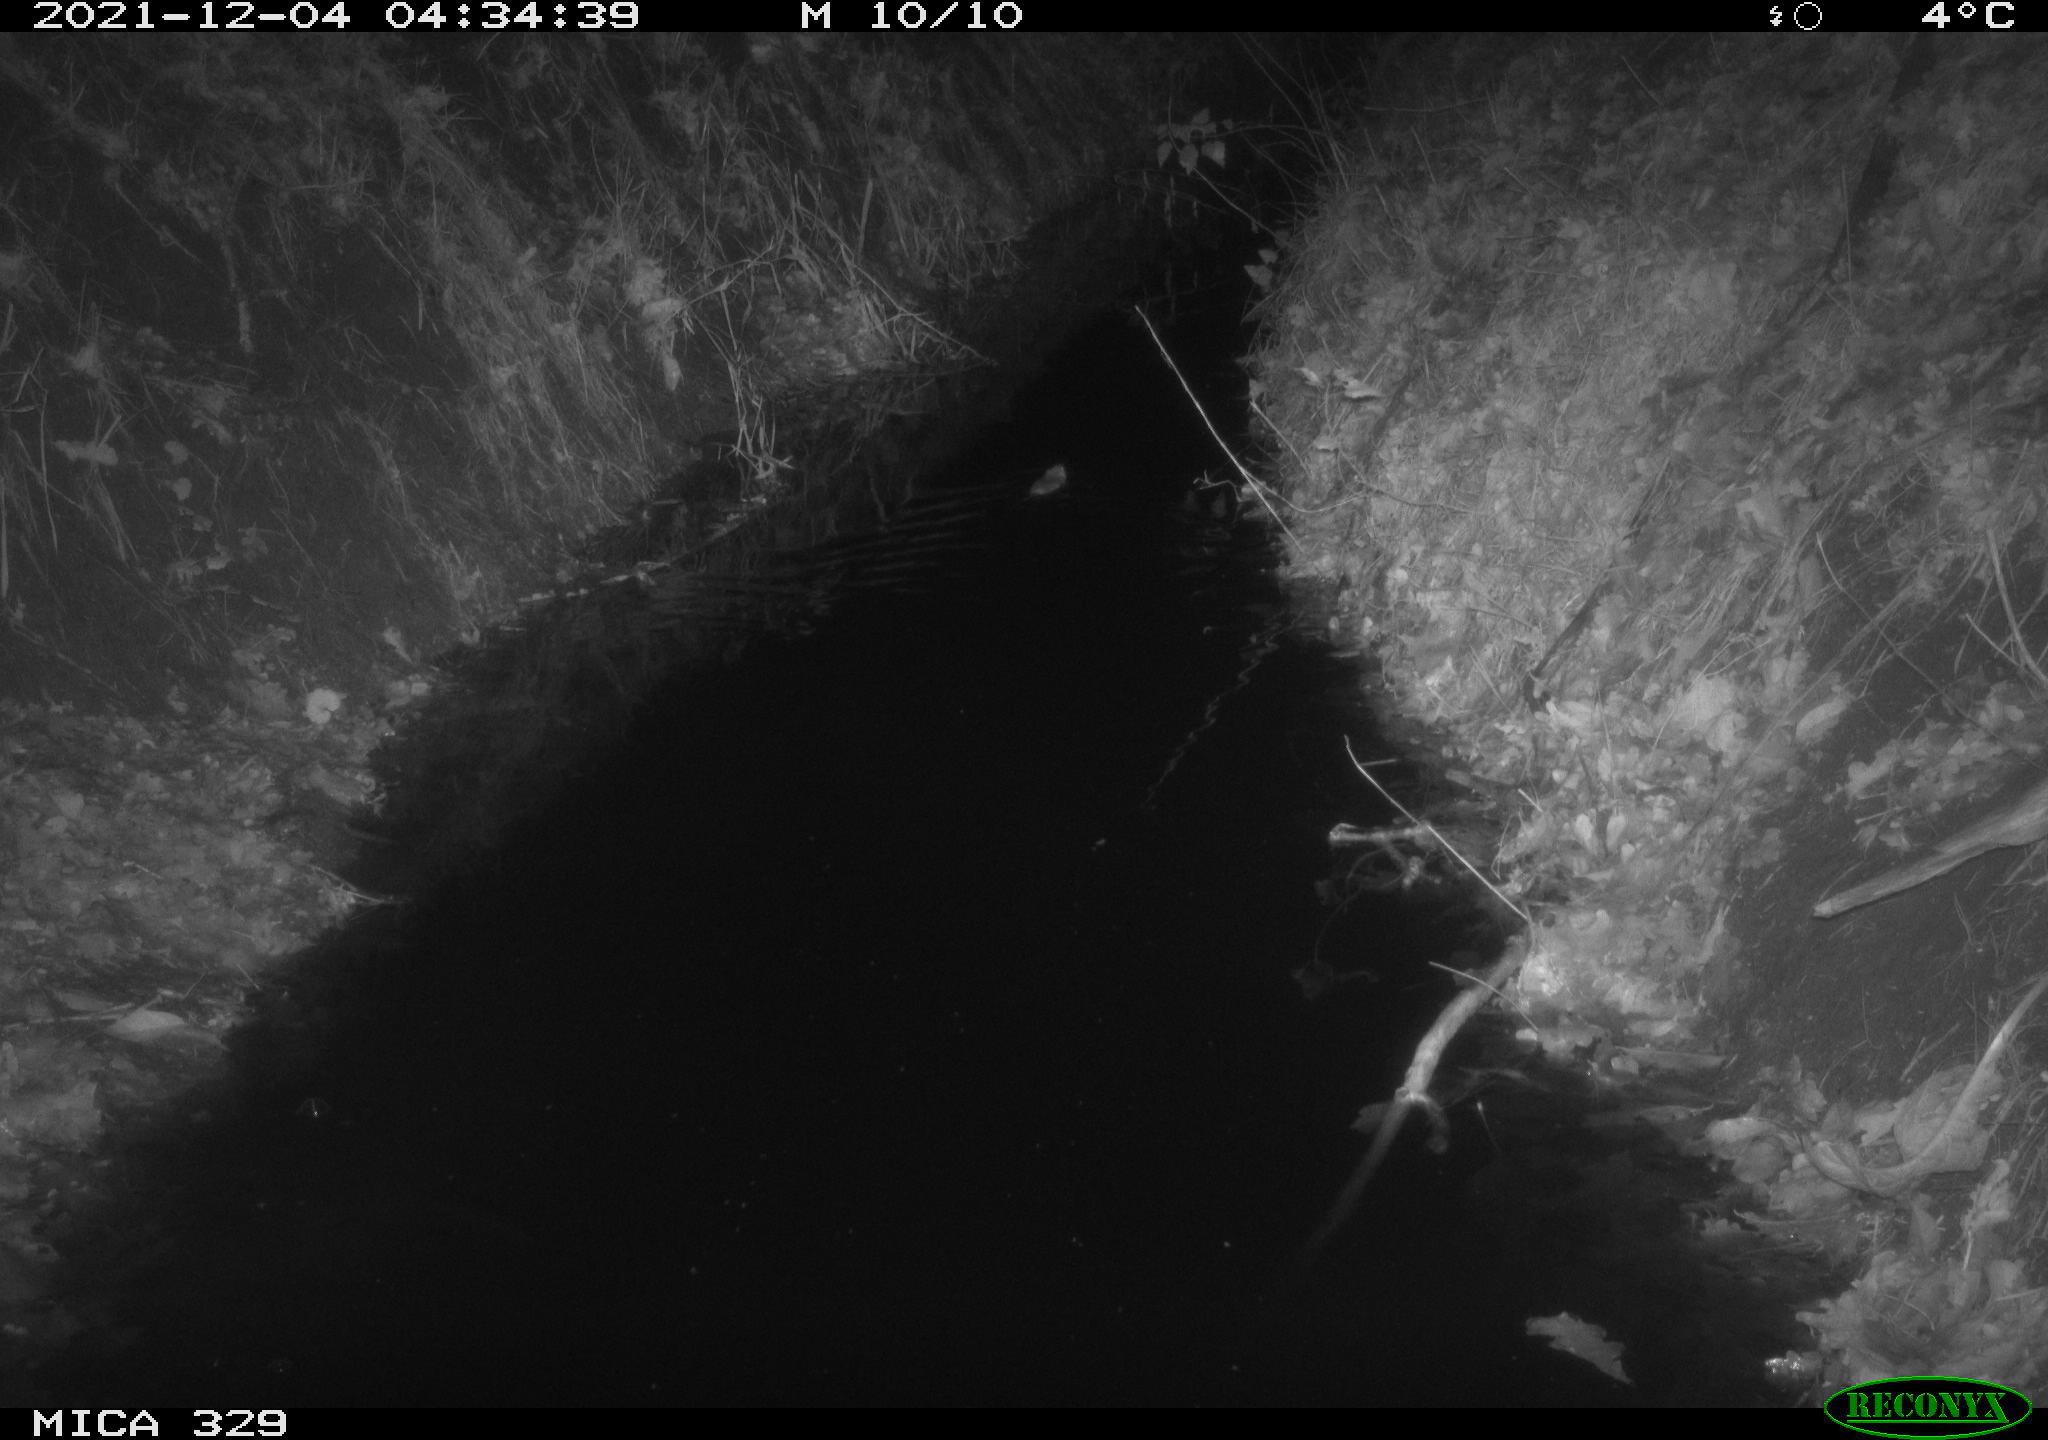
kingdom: Animalia
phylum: Chordata
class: Mammalia
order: Rodentia
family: Muridae
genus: Rattus
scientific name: Rattus norvegicus
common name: Brown rat
